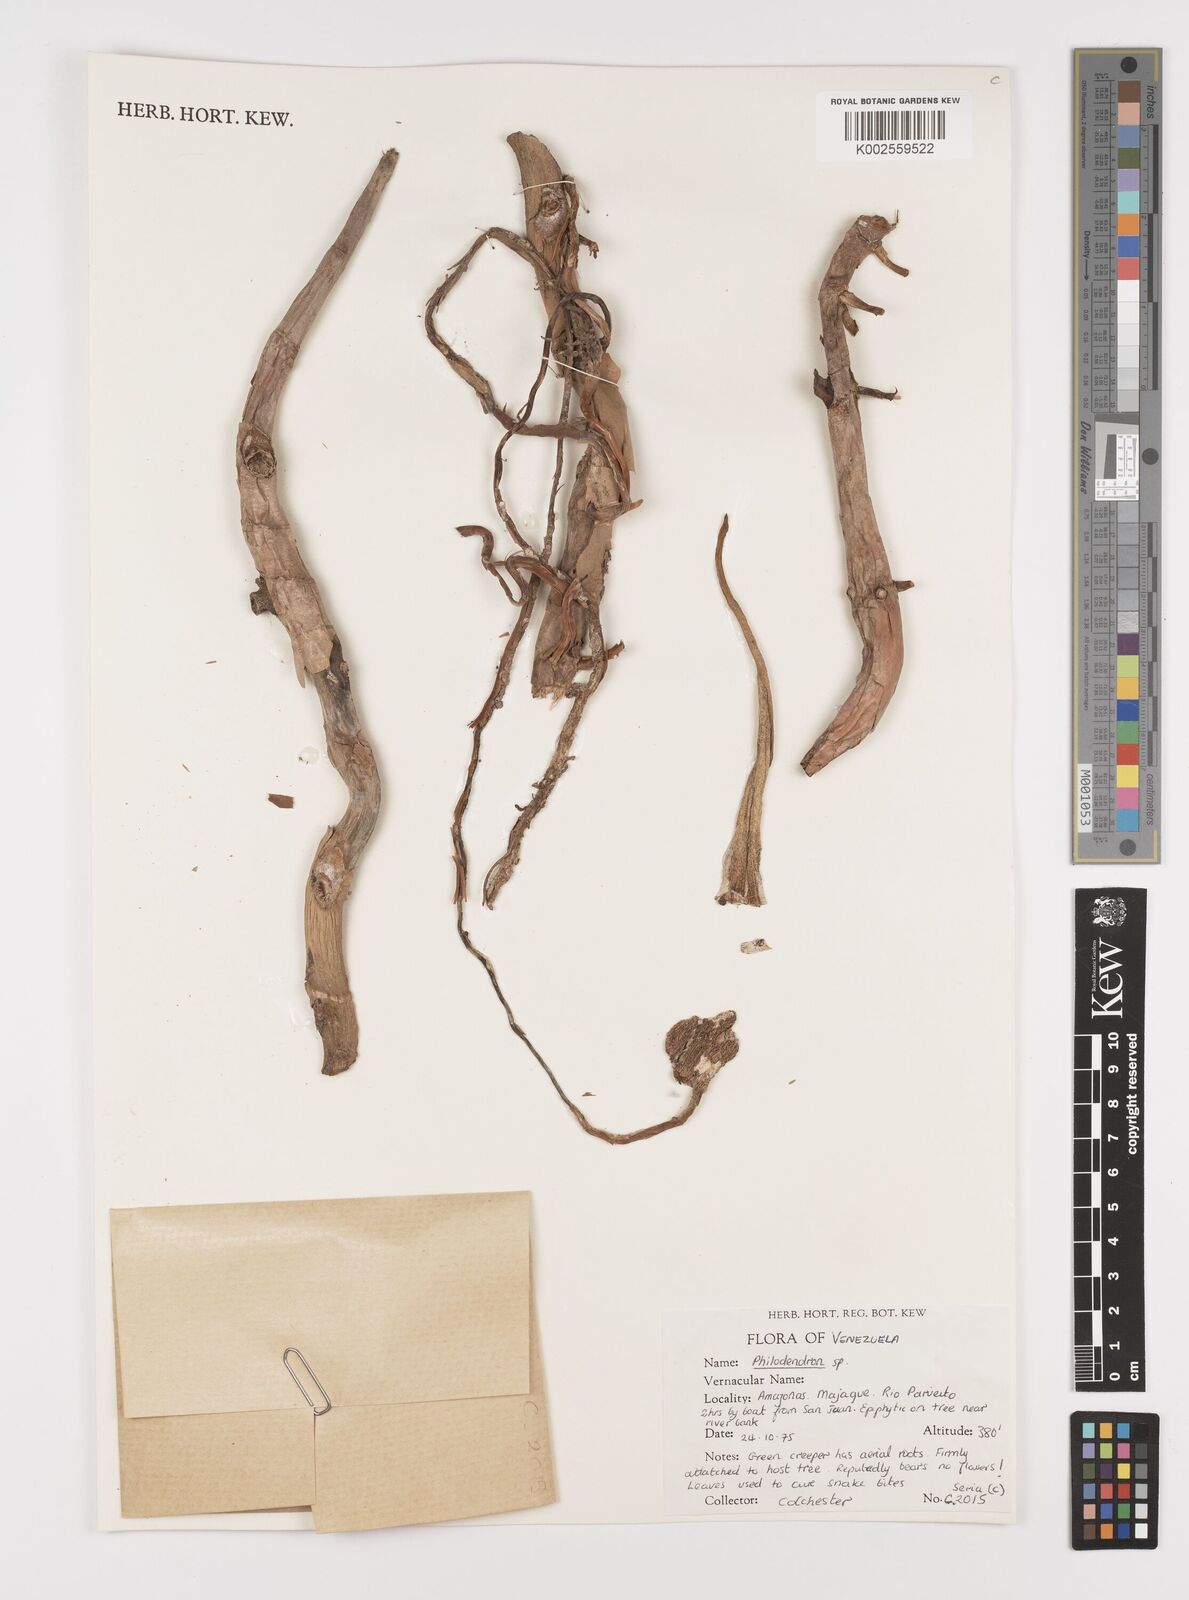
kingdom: Plantae
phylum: Tracheophyta
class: Liliopsida
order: Alismatales
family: Araceae
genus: Philodendron
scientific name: Philodendron
